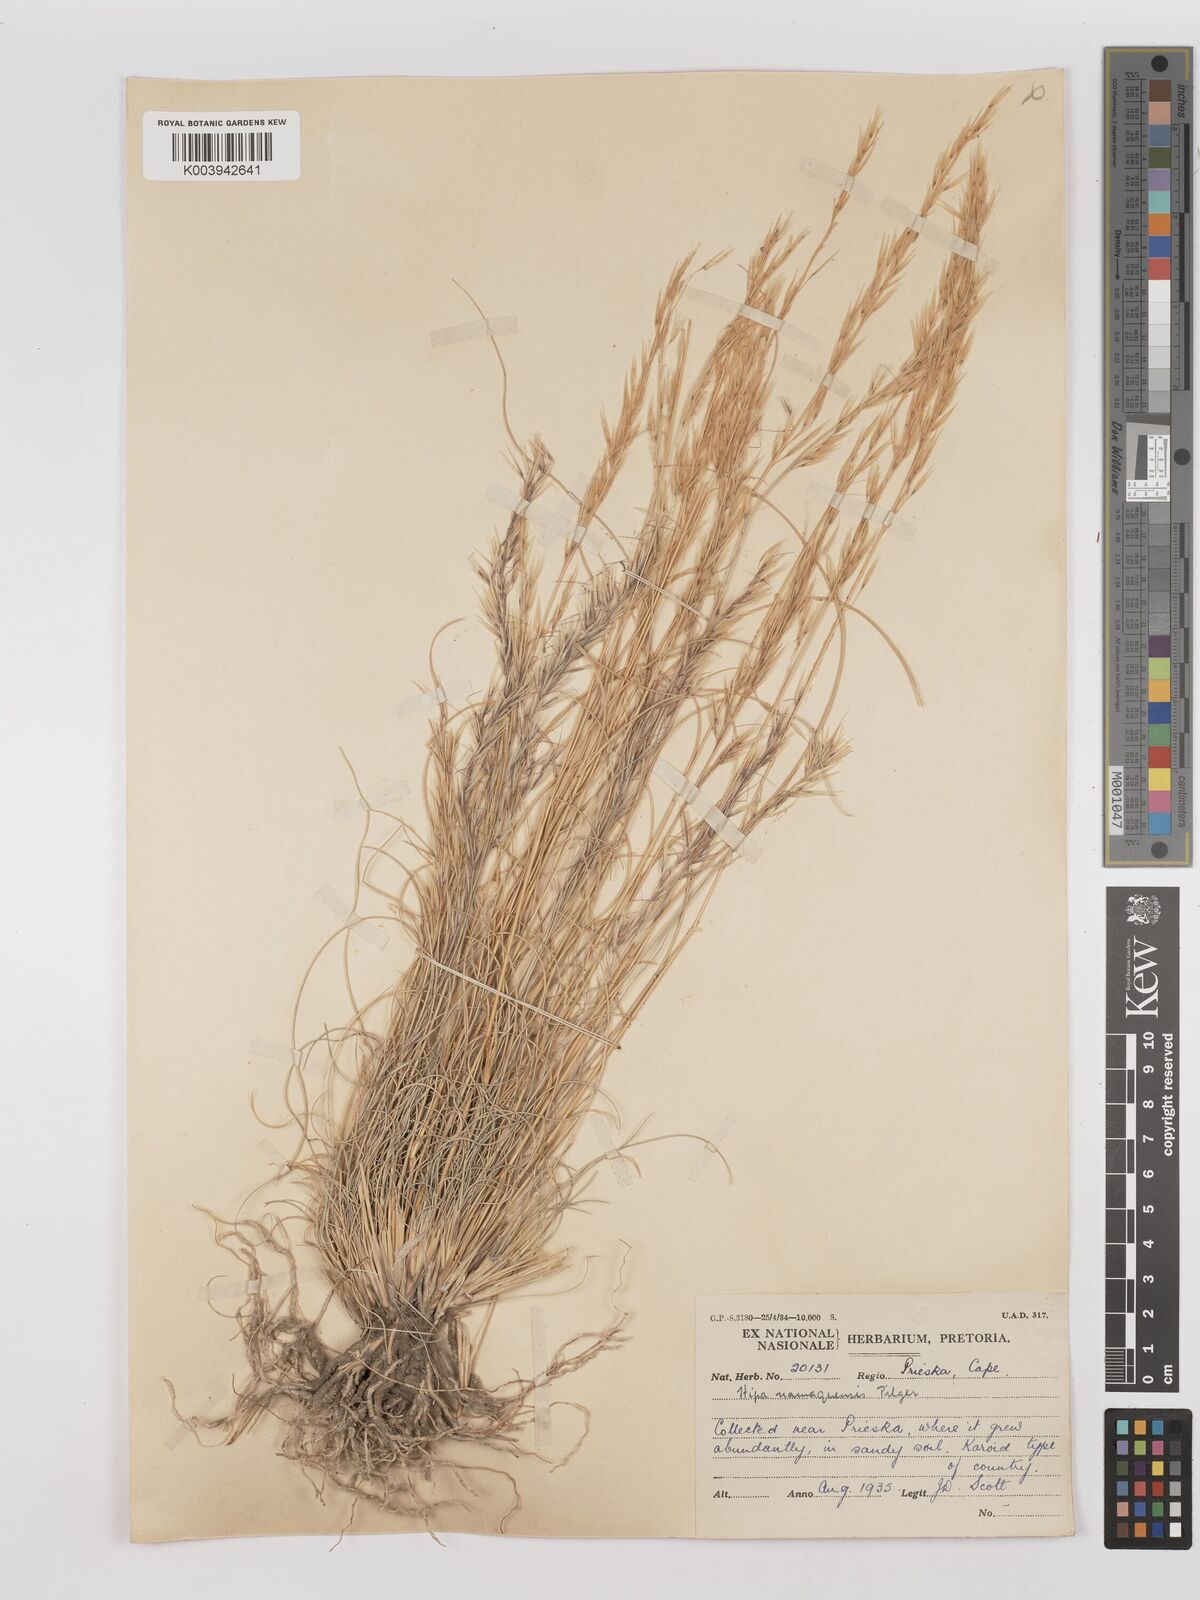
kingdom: Plantae
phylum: Tracheophyta
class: Liliopsida
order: Poales
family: Poaceae
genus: Stipagrostis
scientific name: Stipagrostis anomala
